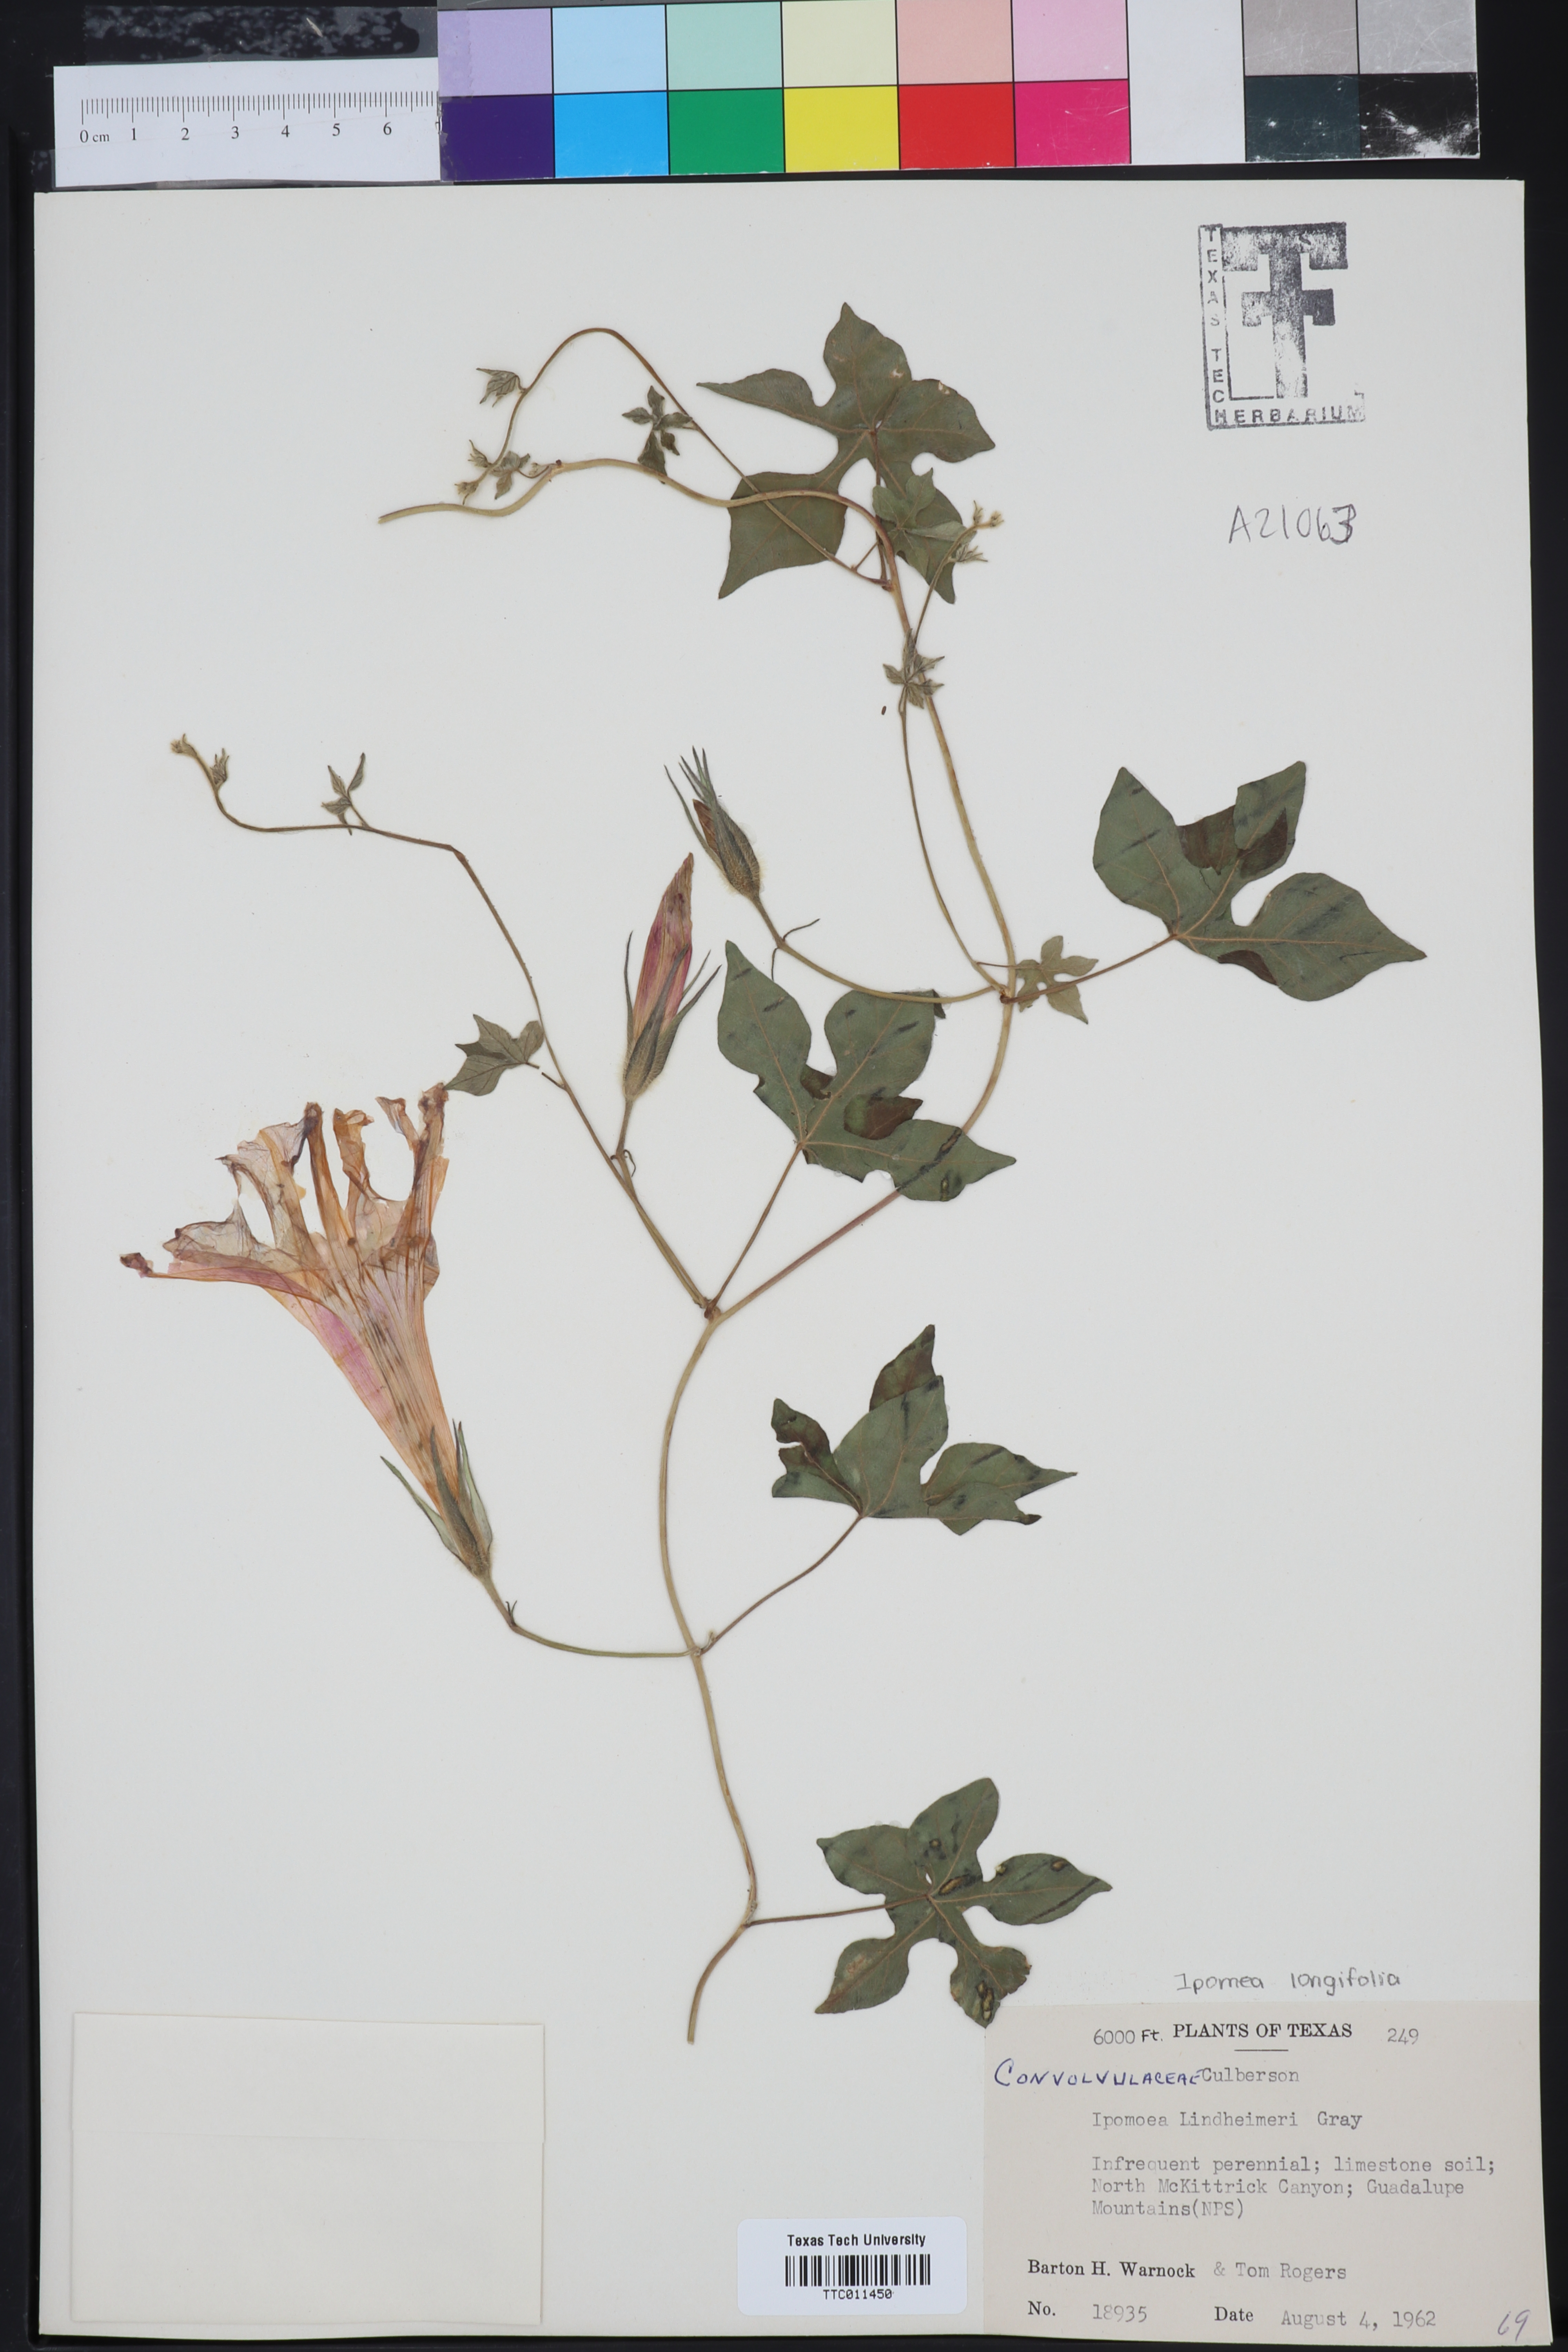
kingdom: Plantae
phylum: Tracheophyta
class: Magnoliopsida
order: Solanales
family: Convolvulaceae
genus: Ipomoea
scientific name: Ipomoea lindheimeri
